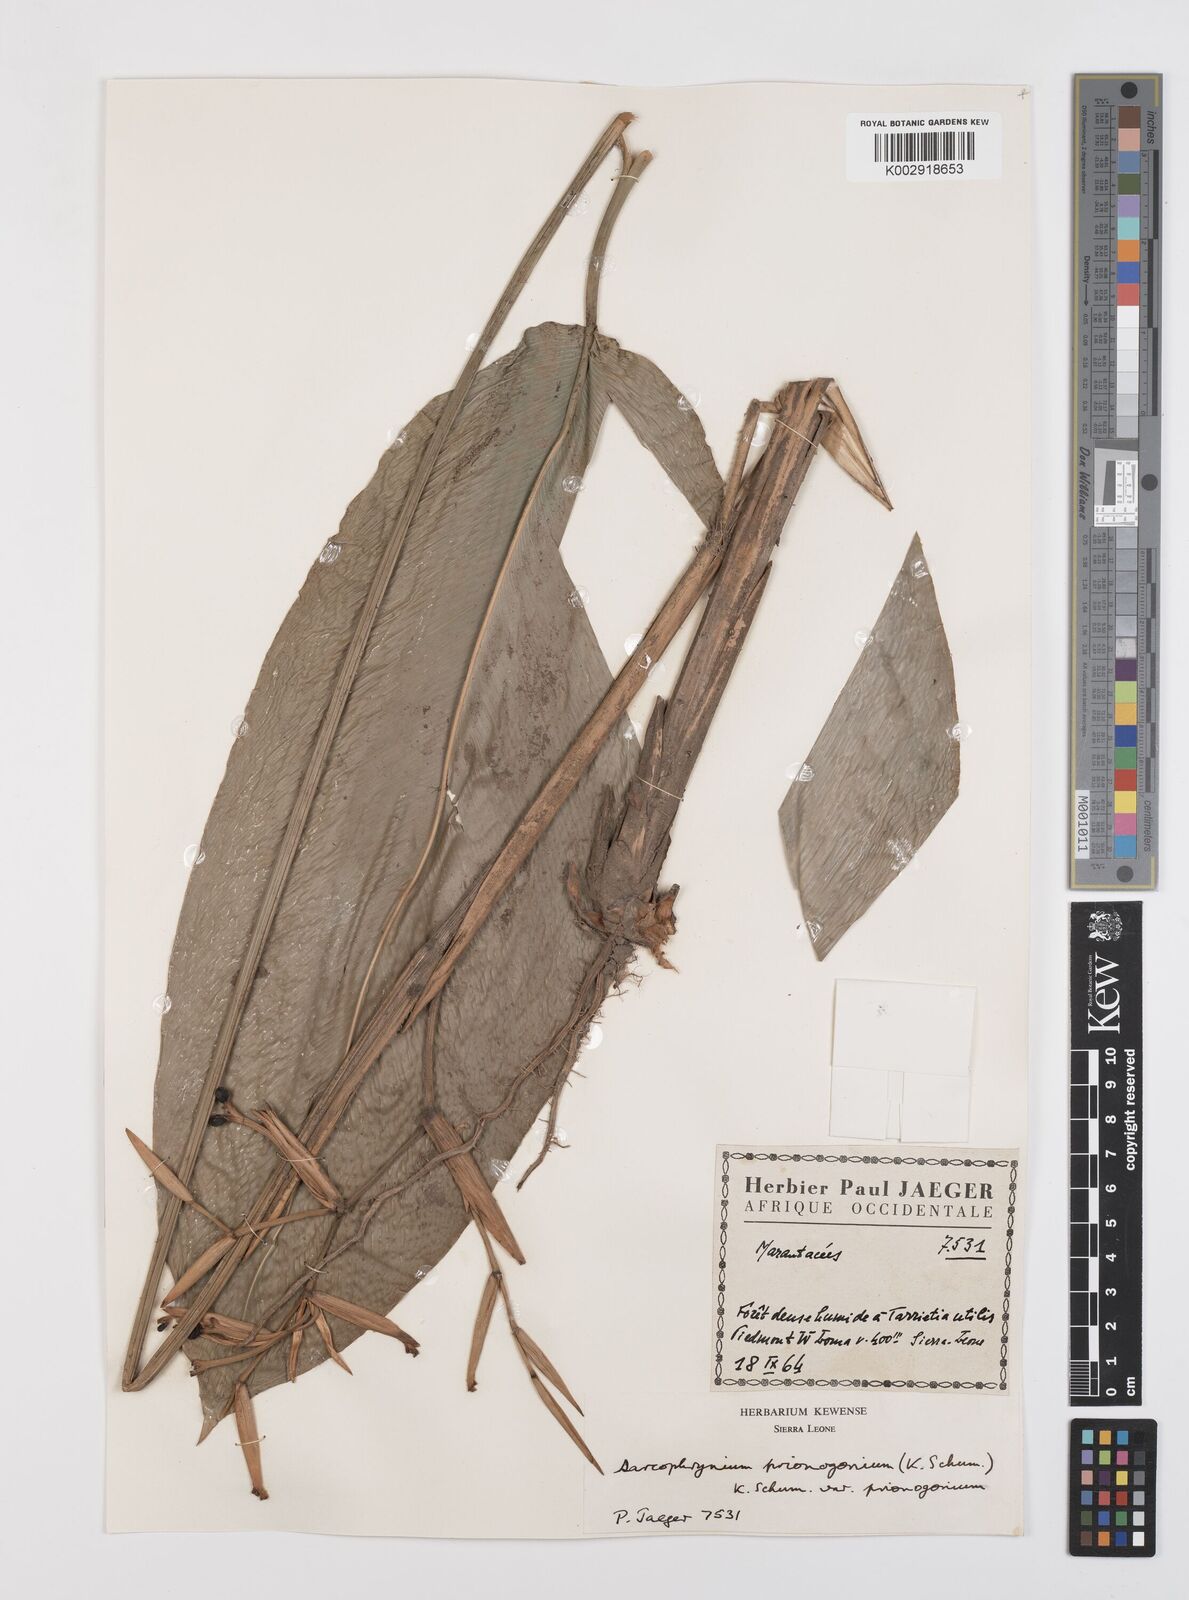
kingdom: Plantae
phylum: Tracheophyta
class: Liliopsida
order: Zingiberales
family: Marantaceae
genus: Sarcophrynium
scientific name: Sarcophrynium prionogonium
